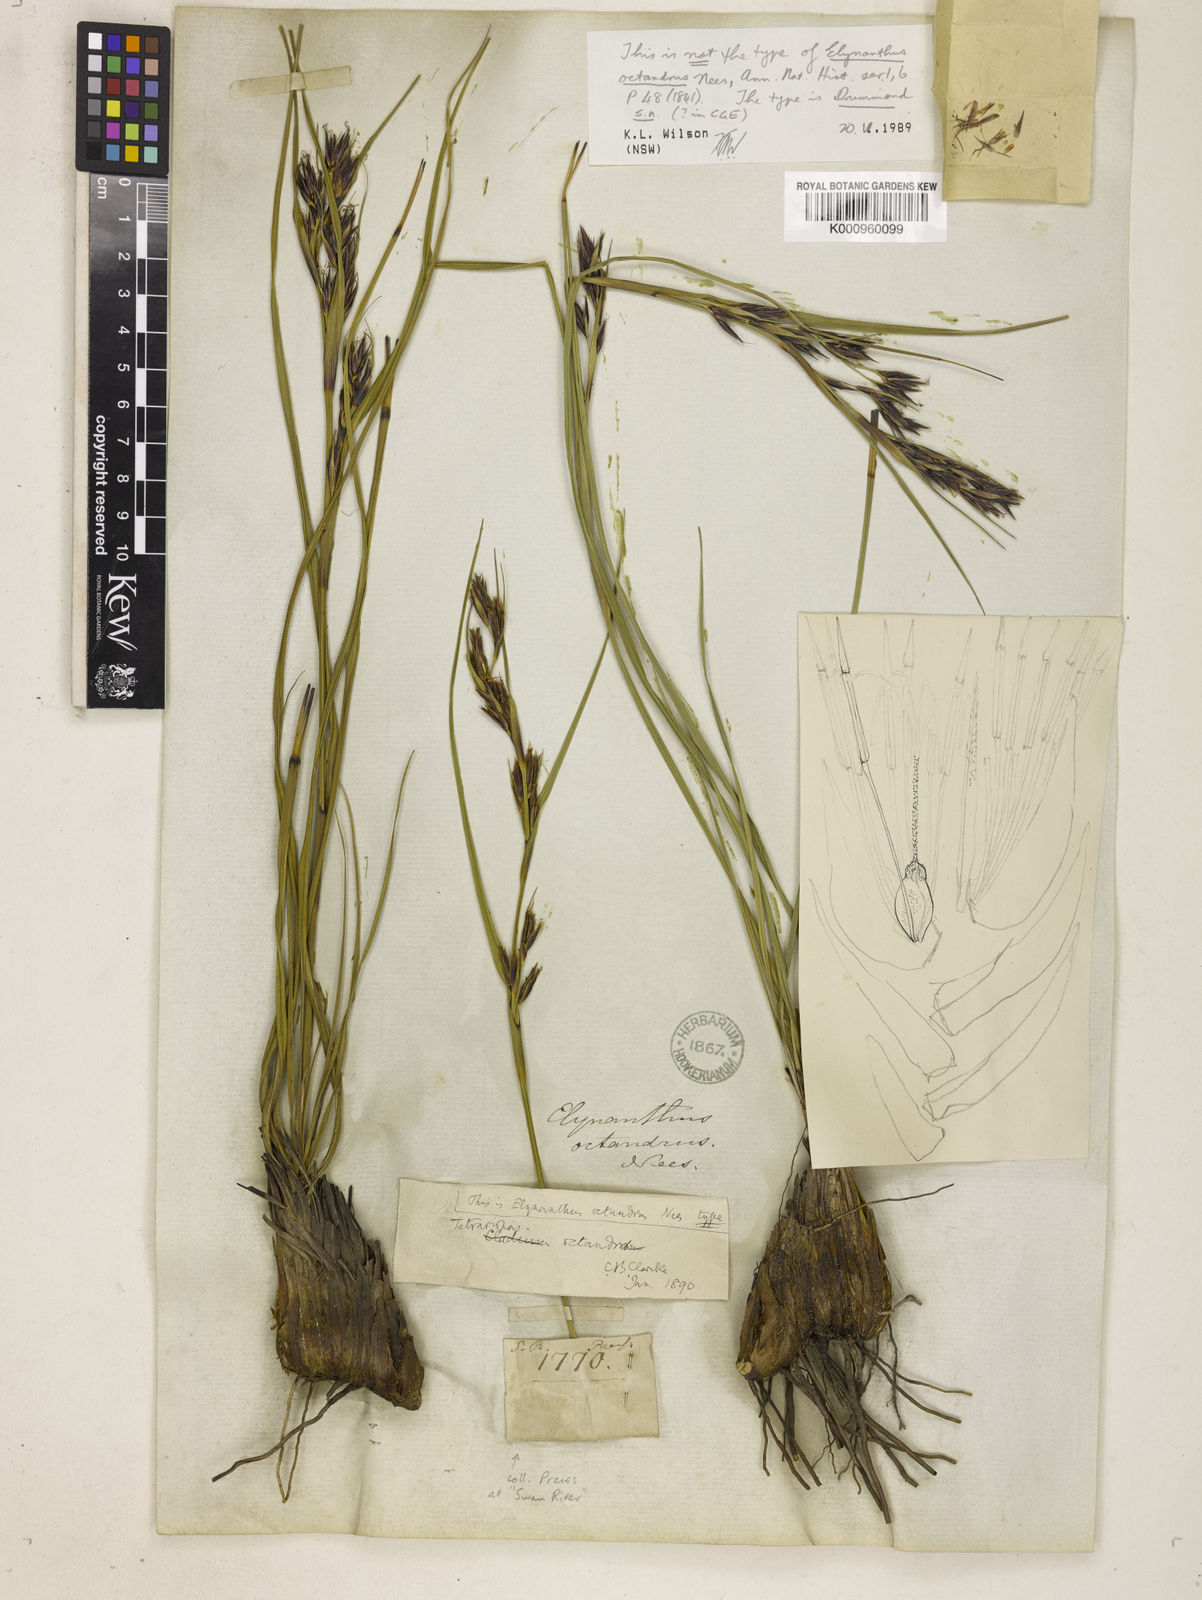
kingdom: Plantae
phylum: Tracheophyta
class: Liliopsida
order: Poales
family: Cyperaceae
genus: Tetraria
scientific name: Tetraria
